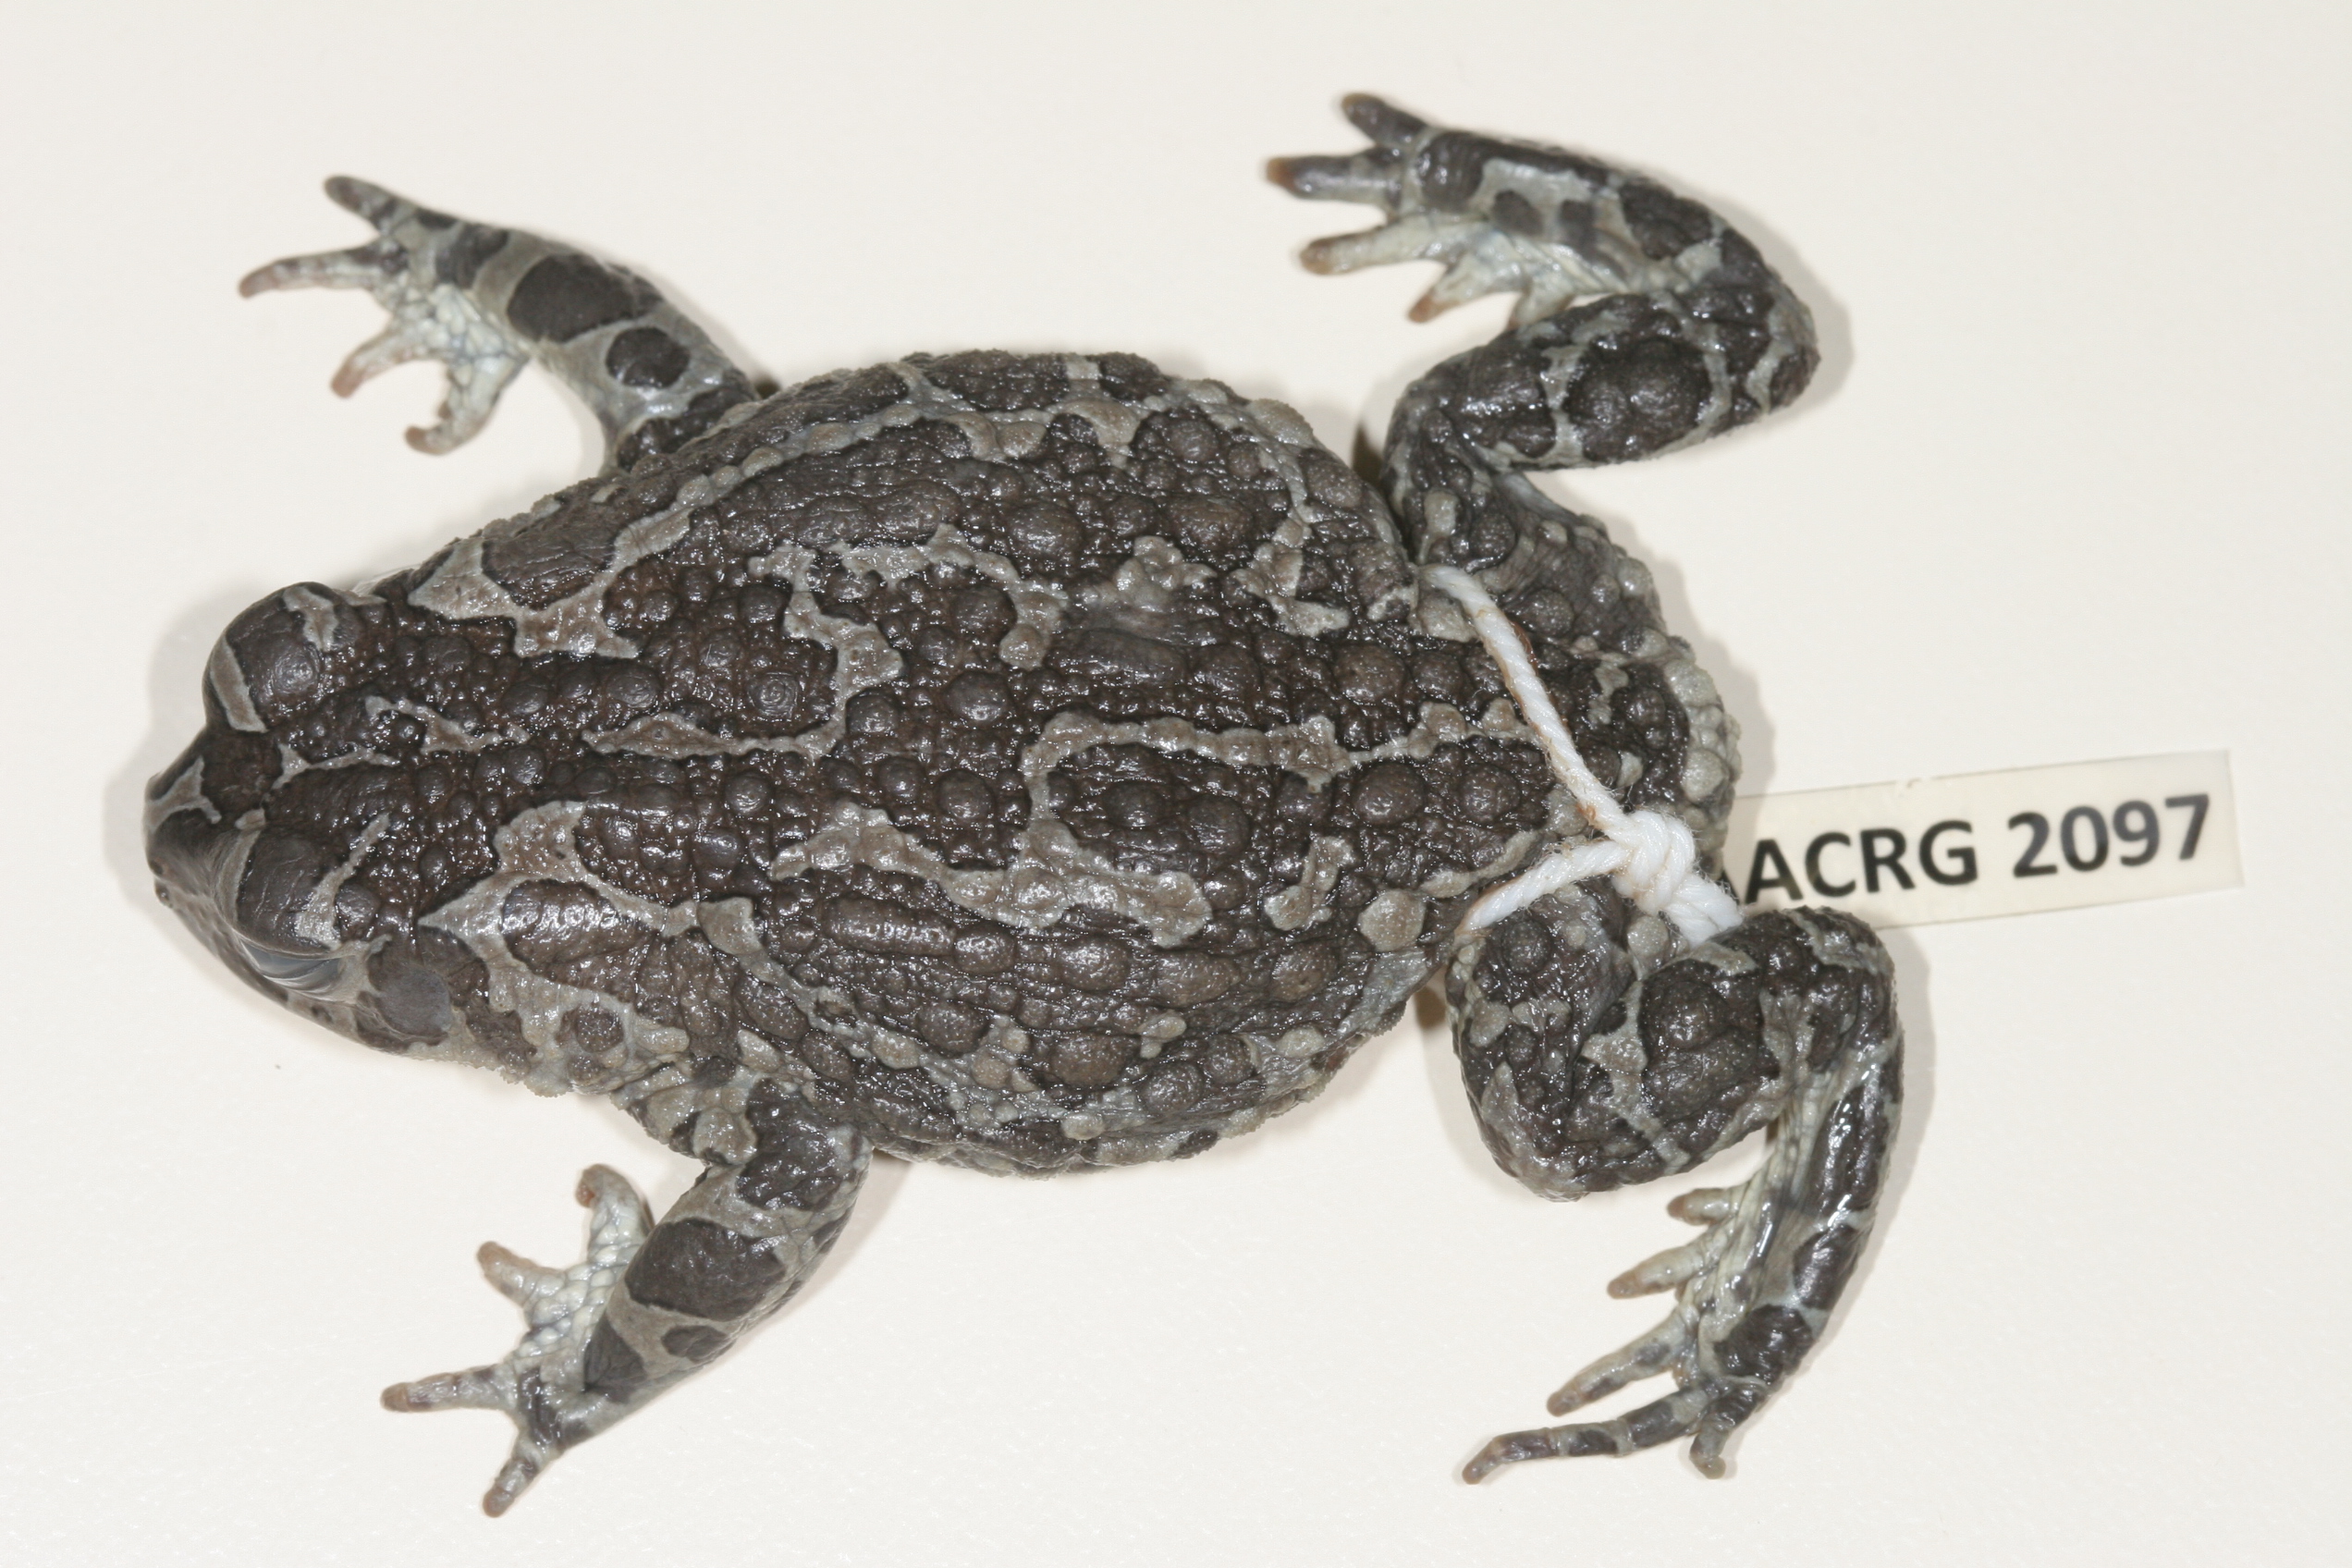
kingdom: Animalia
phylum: Chordata
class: Amphibia
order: Anura
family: Bufonidae
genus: Vandijkophrynus
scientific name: Vandijkophrynus gariepensis
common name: Gariep toad
